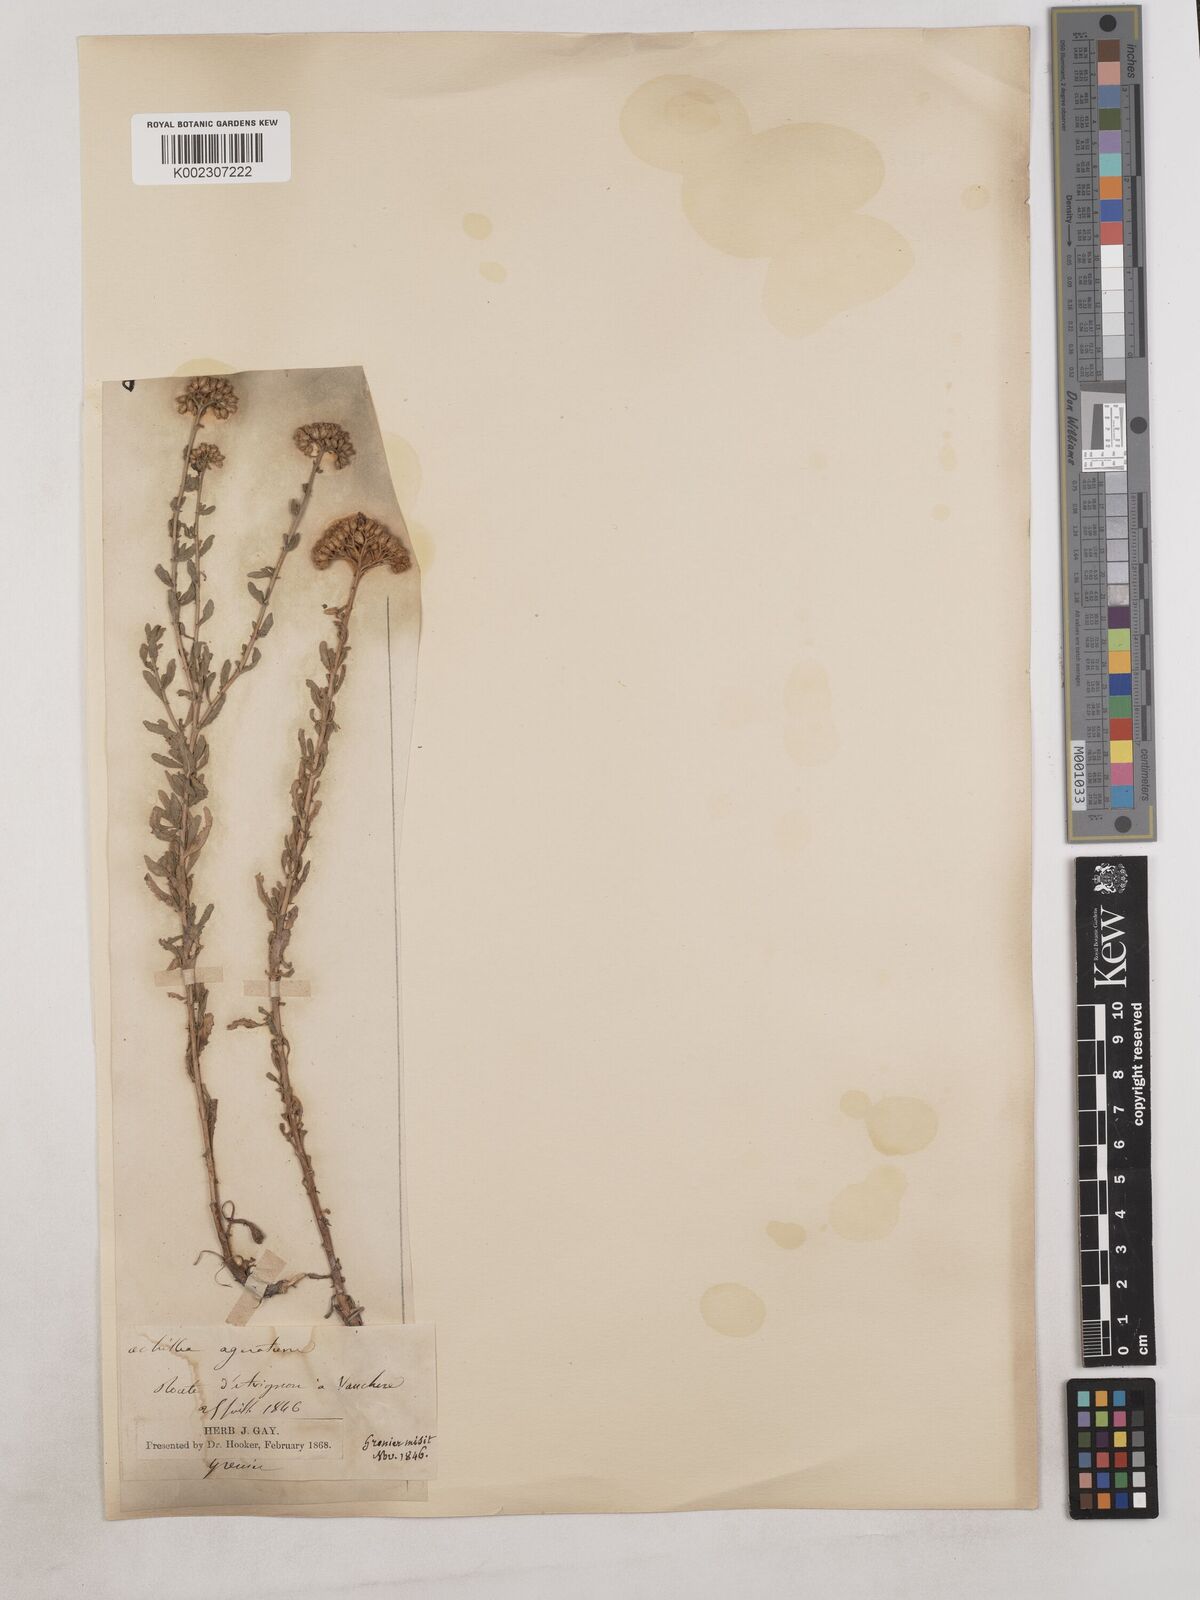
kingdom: Plantae
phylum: Tracheophyta
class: Magnoliopsida
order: Asterales
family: Asteraceae
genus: Achillea
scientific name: Achillea ageratum
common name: Sweet-nancy
